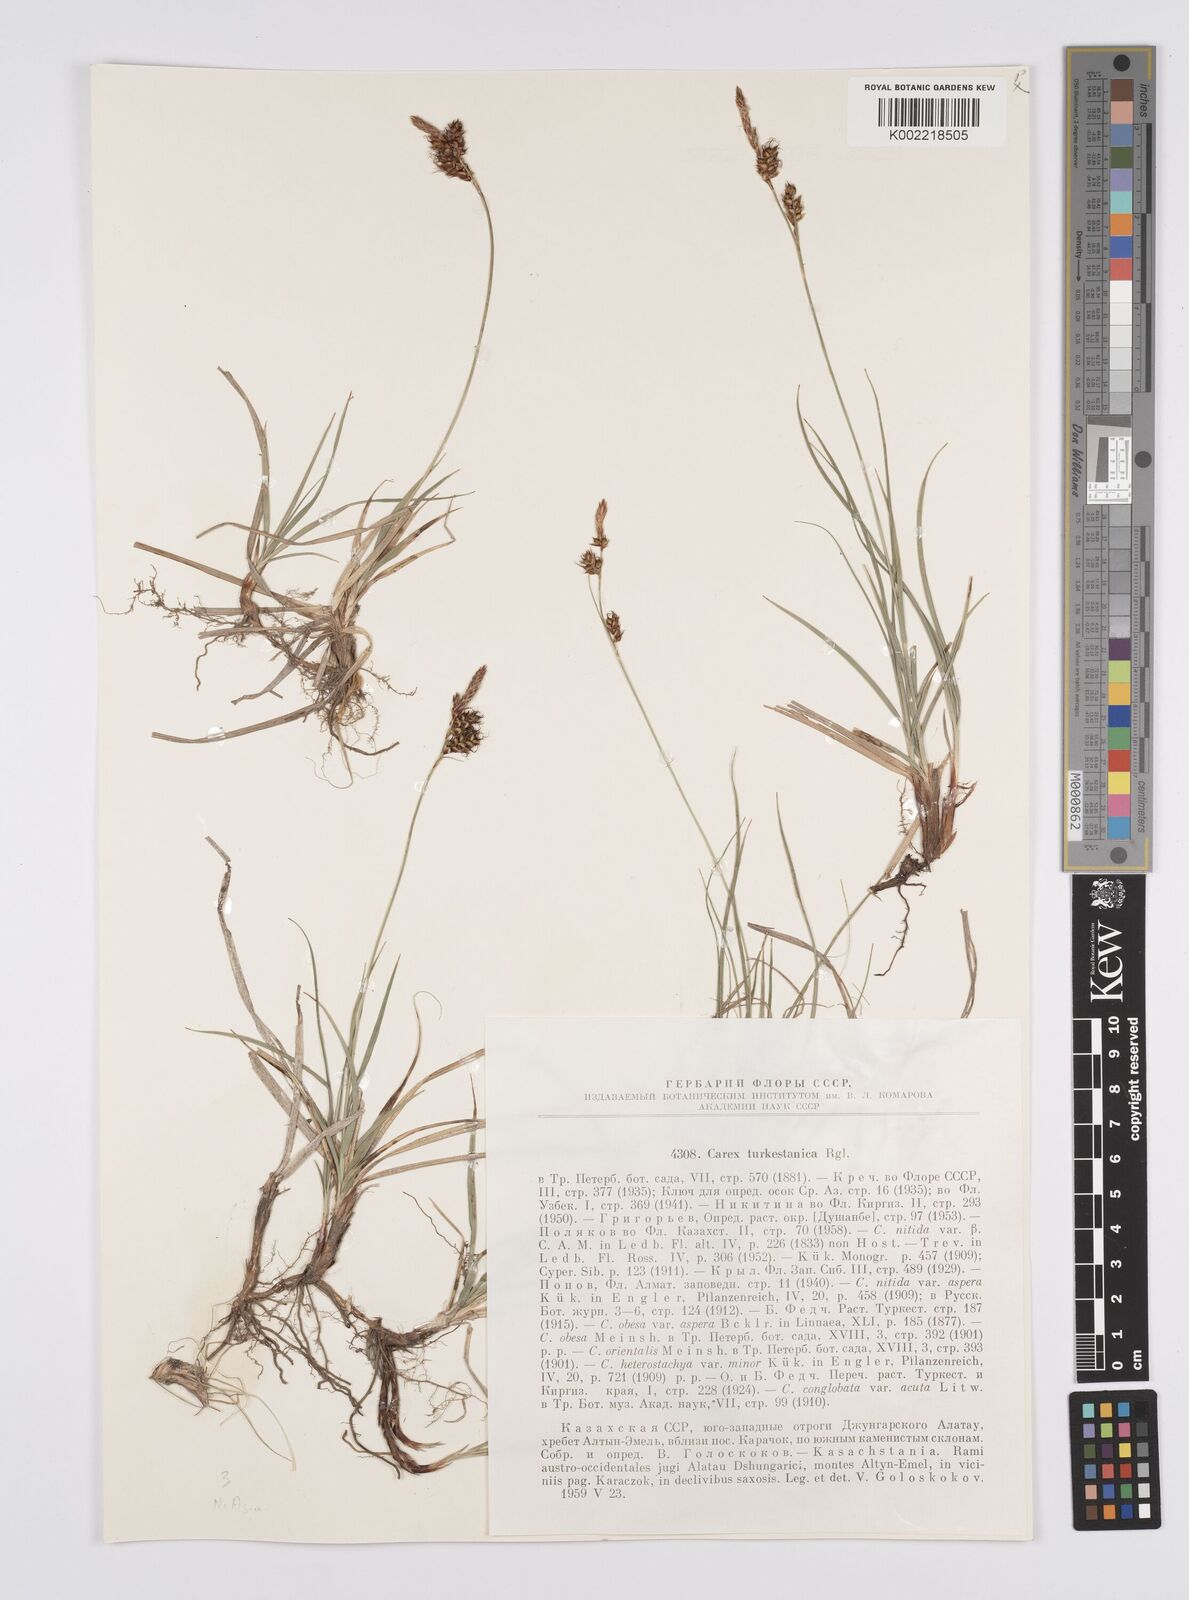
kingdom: Plantae
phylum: Tracheophyta
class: Liliopsida
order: Poales
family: Cyperaceae
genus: Carex
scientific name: Carex liparocarpos
